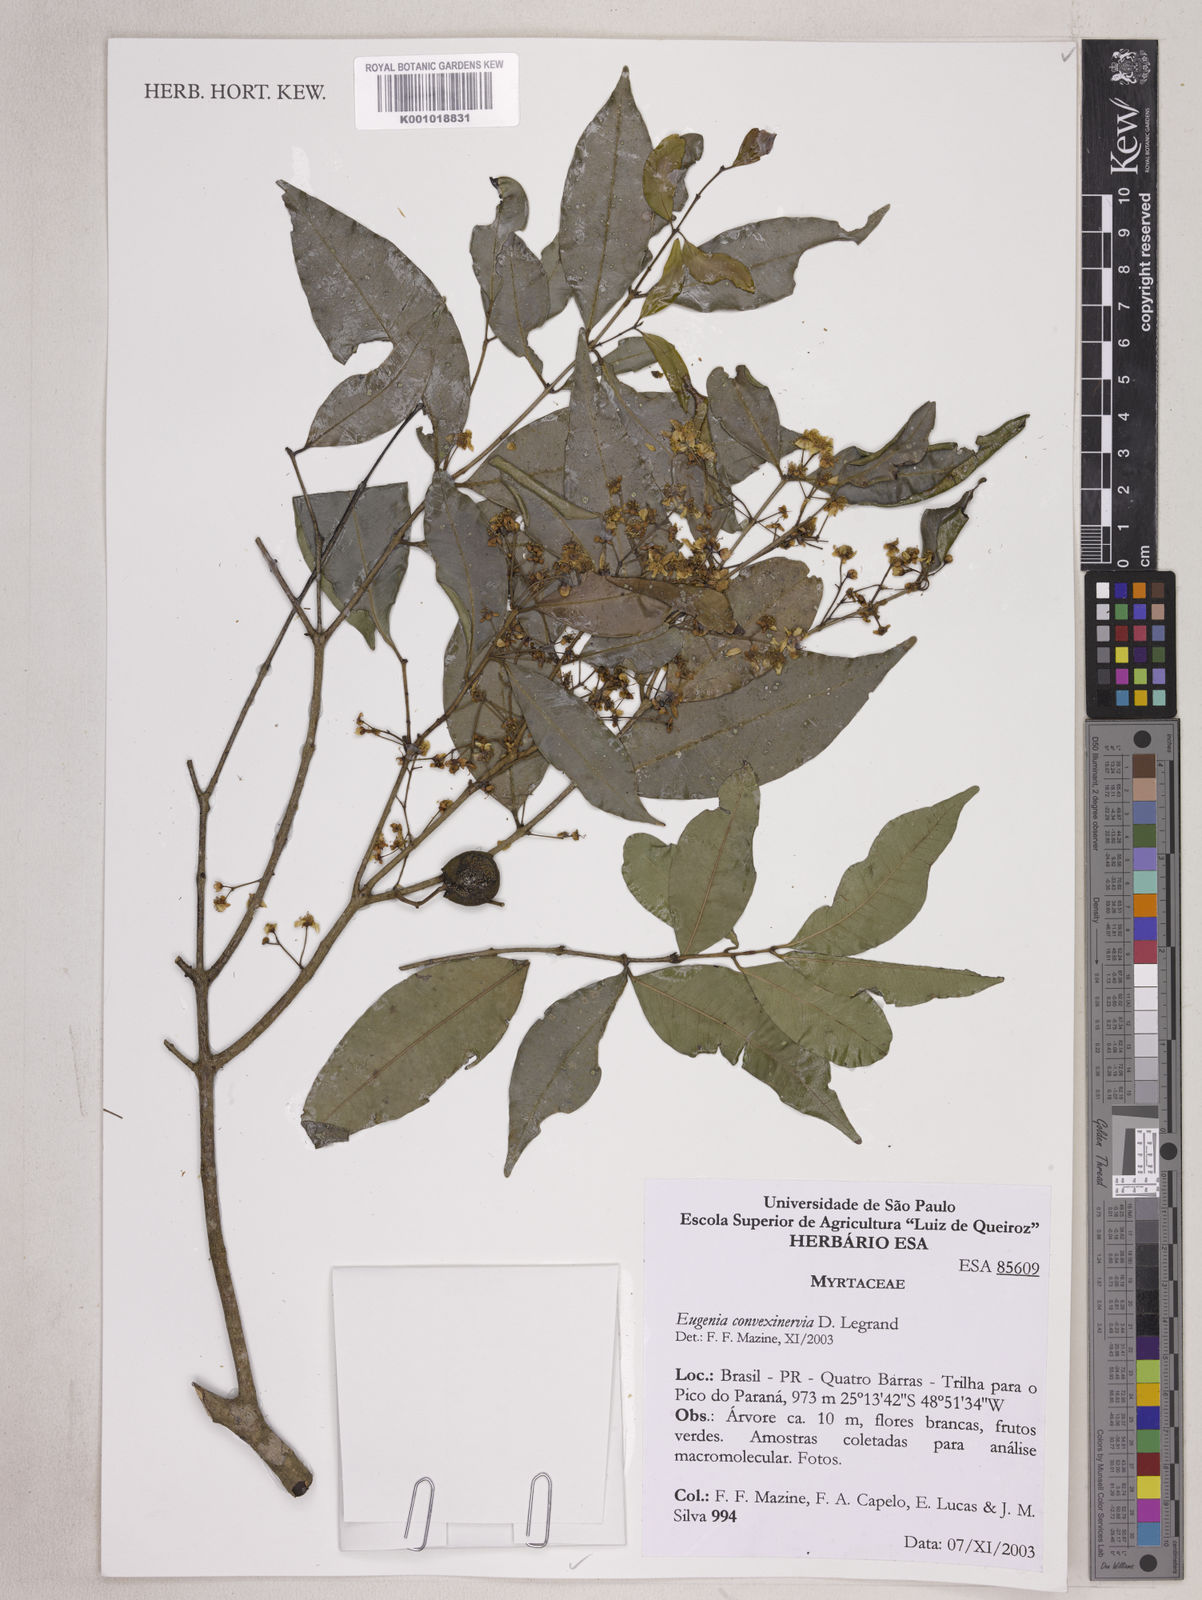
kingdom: Plantae
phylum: Tracheophyta
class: Magnoliopsida
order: Myrtales
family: Myrtaceae
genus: Eugenia
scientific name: Eugenia convexinervia
